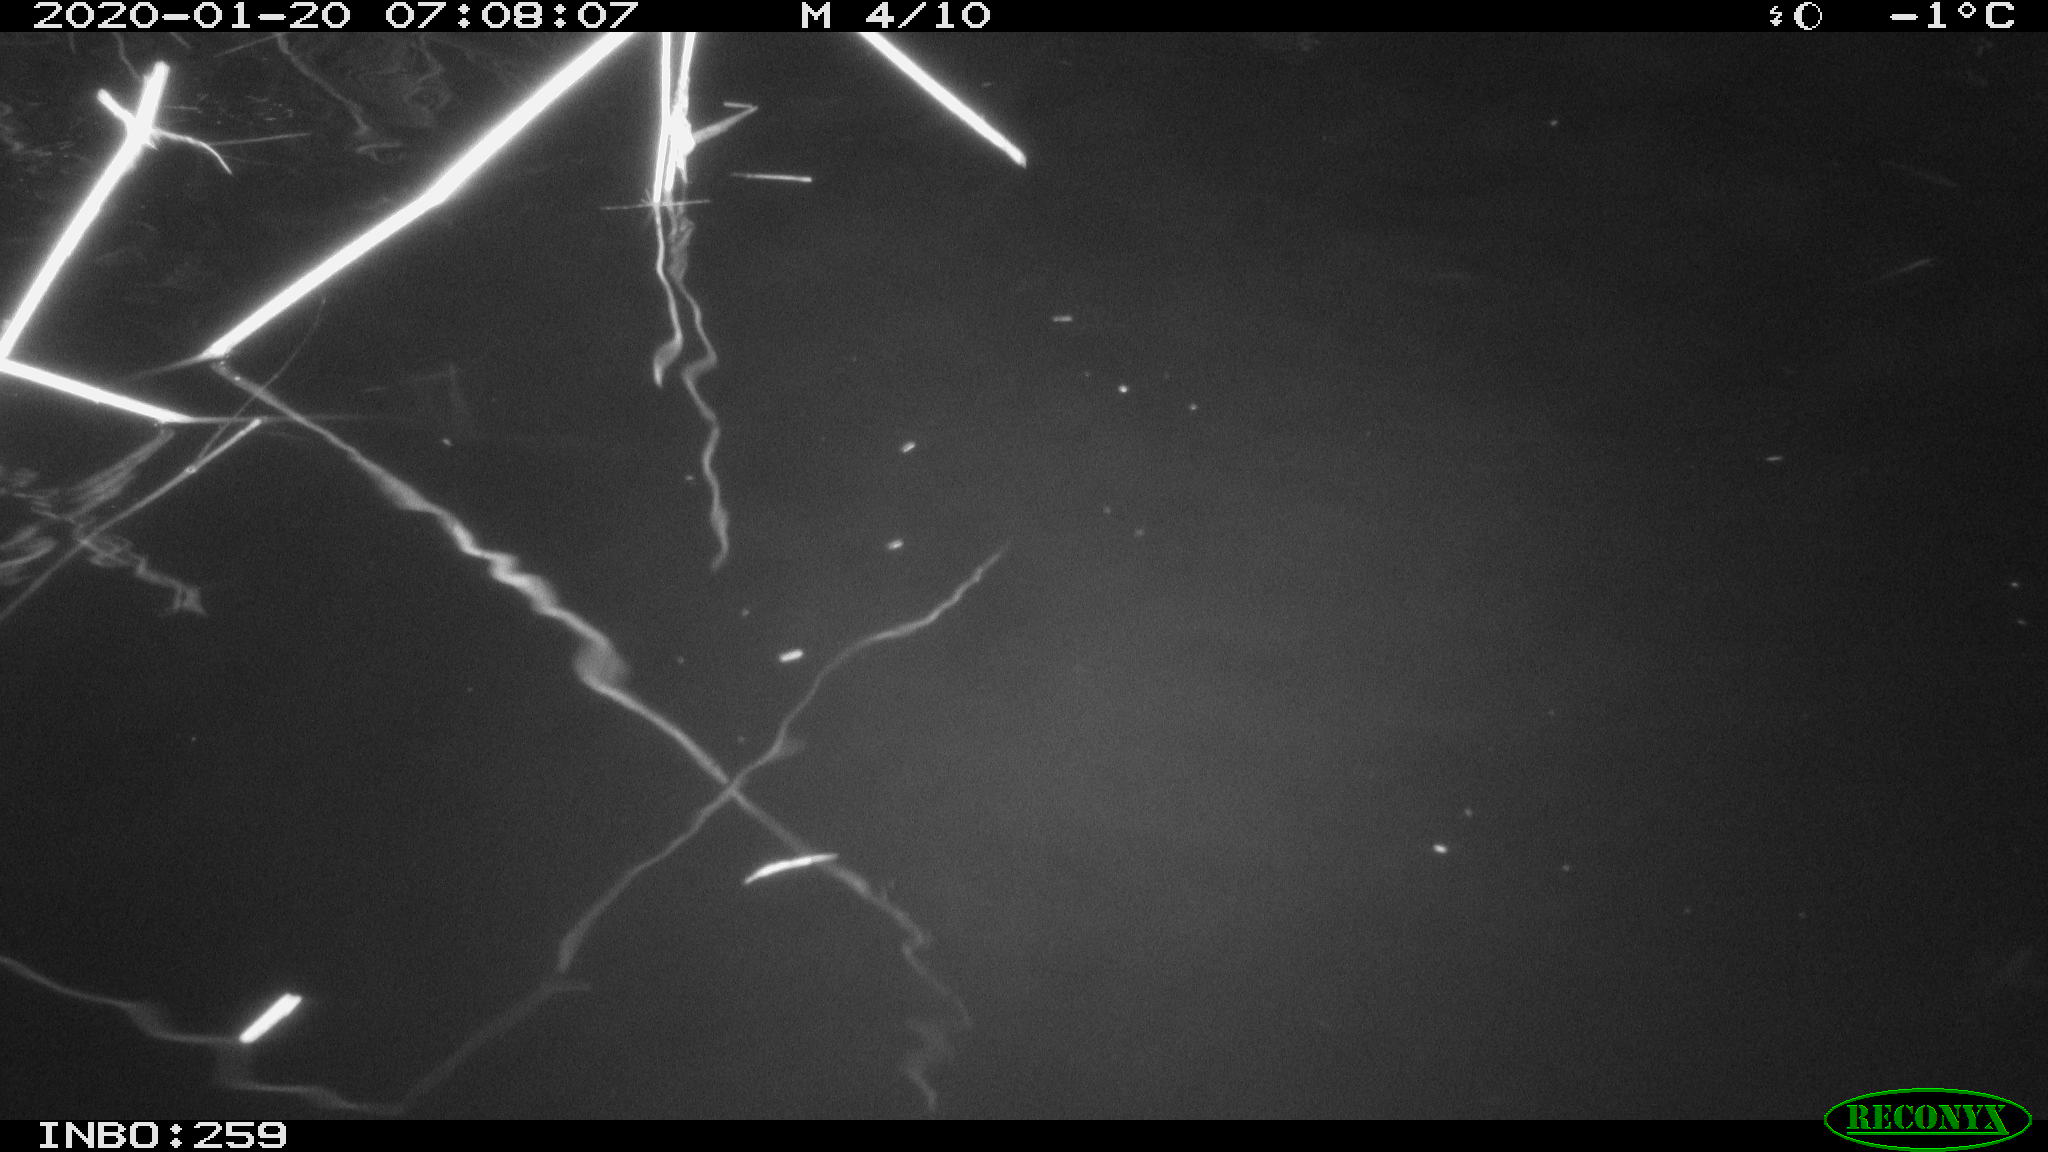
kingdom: Animalia
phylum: Chordata
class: Aves
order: Gruiformes
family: Rallidae
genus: Gallinula
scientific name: Gallinula chloropus
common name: Common moorhen
